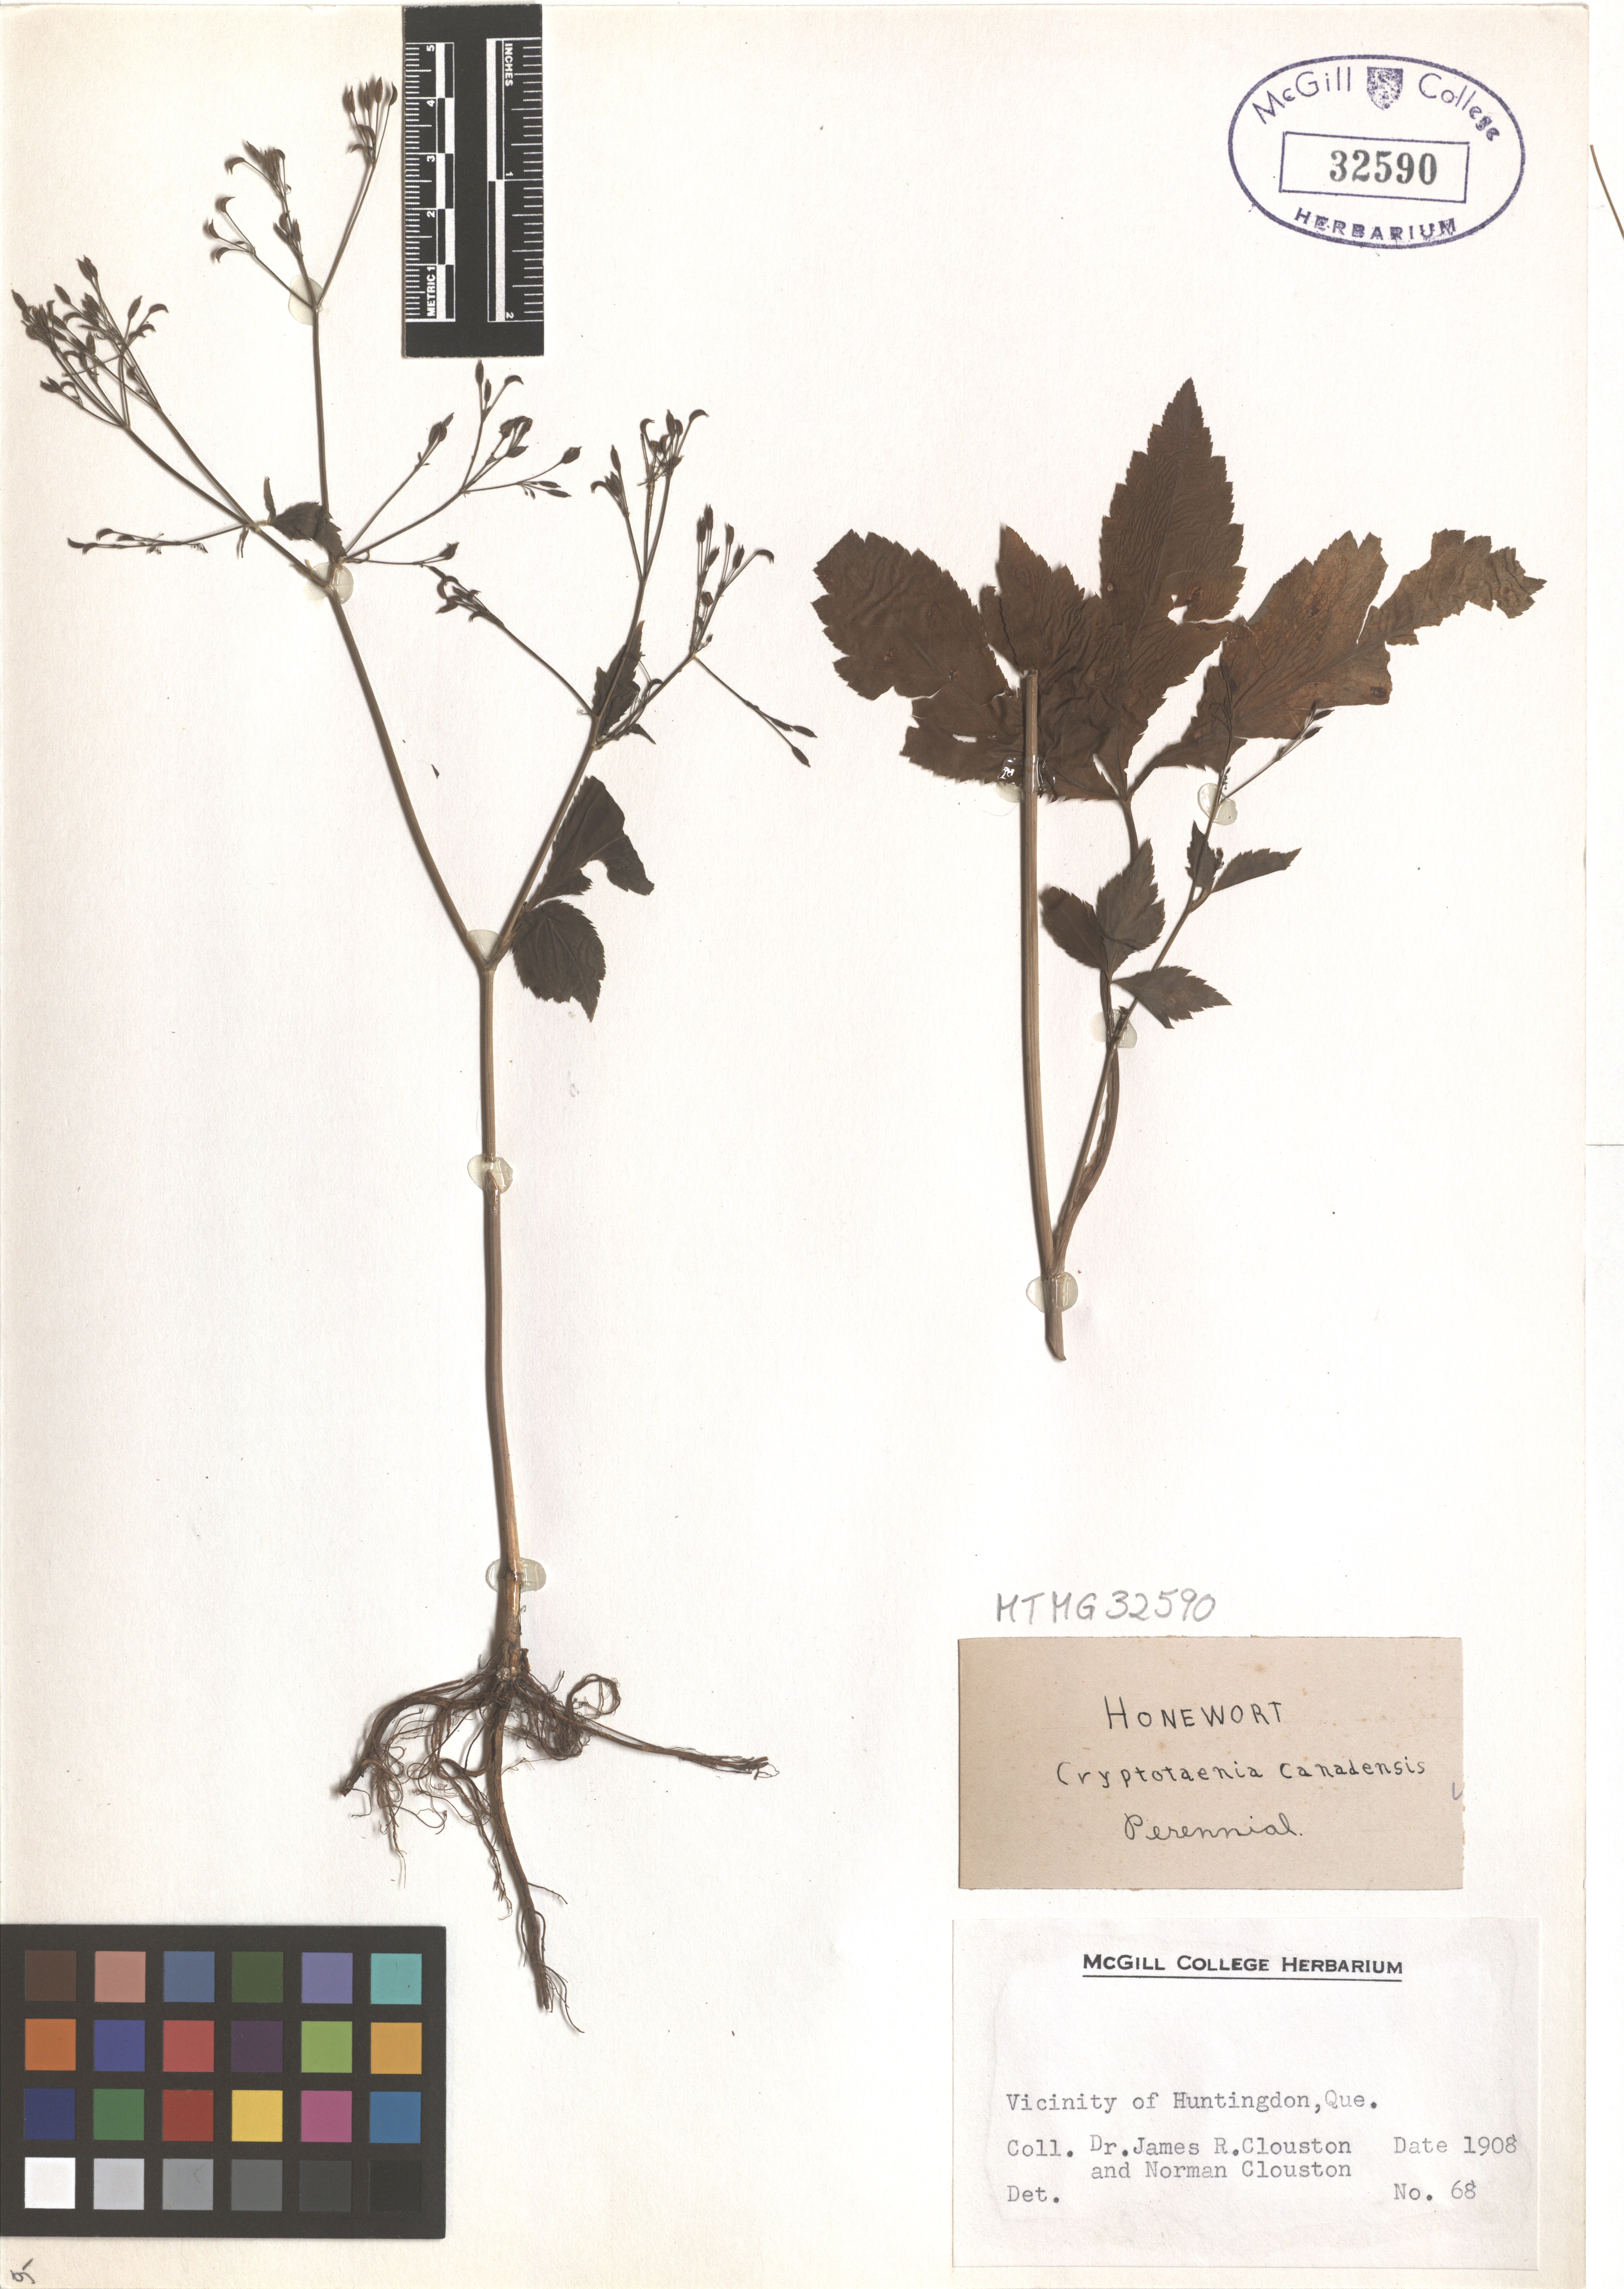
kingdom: Plantae
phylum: Tracheophyta
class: Magnoliopsida
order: Apiales
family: Apiaceae
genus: Cryptotaenia
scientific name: Cryptotaenia canadensis
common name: Honewort
